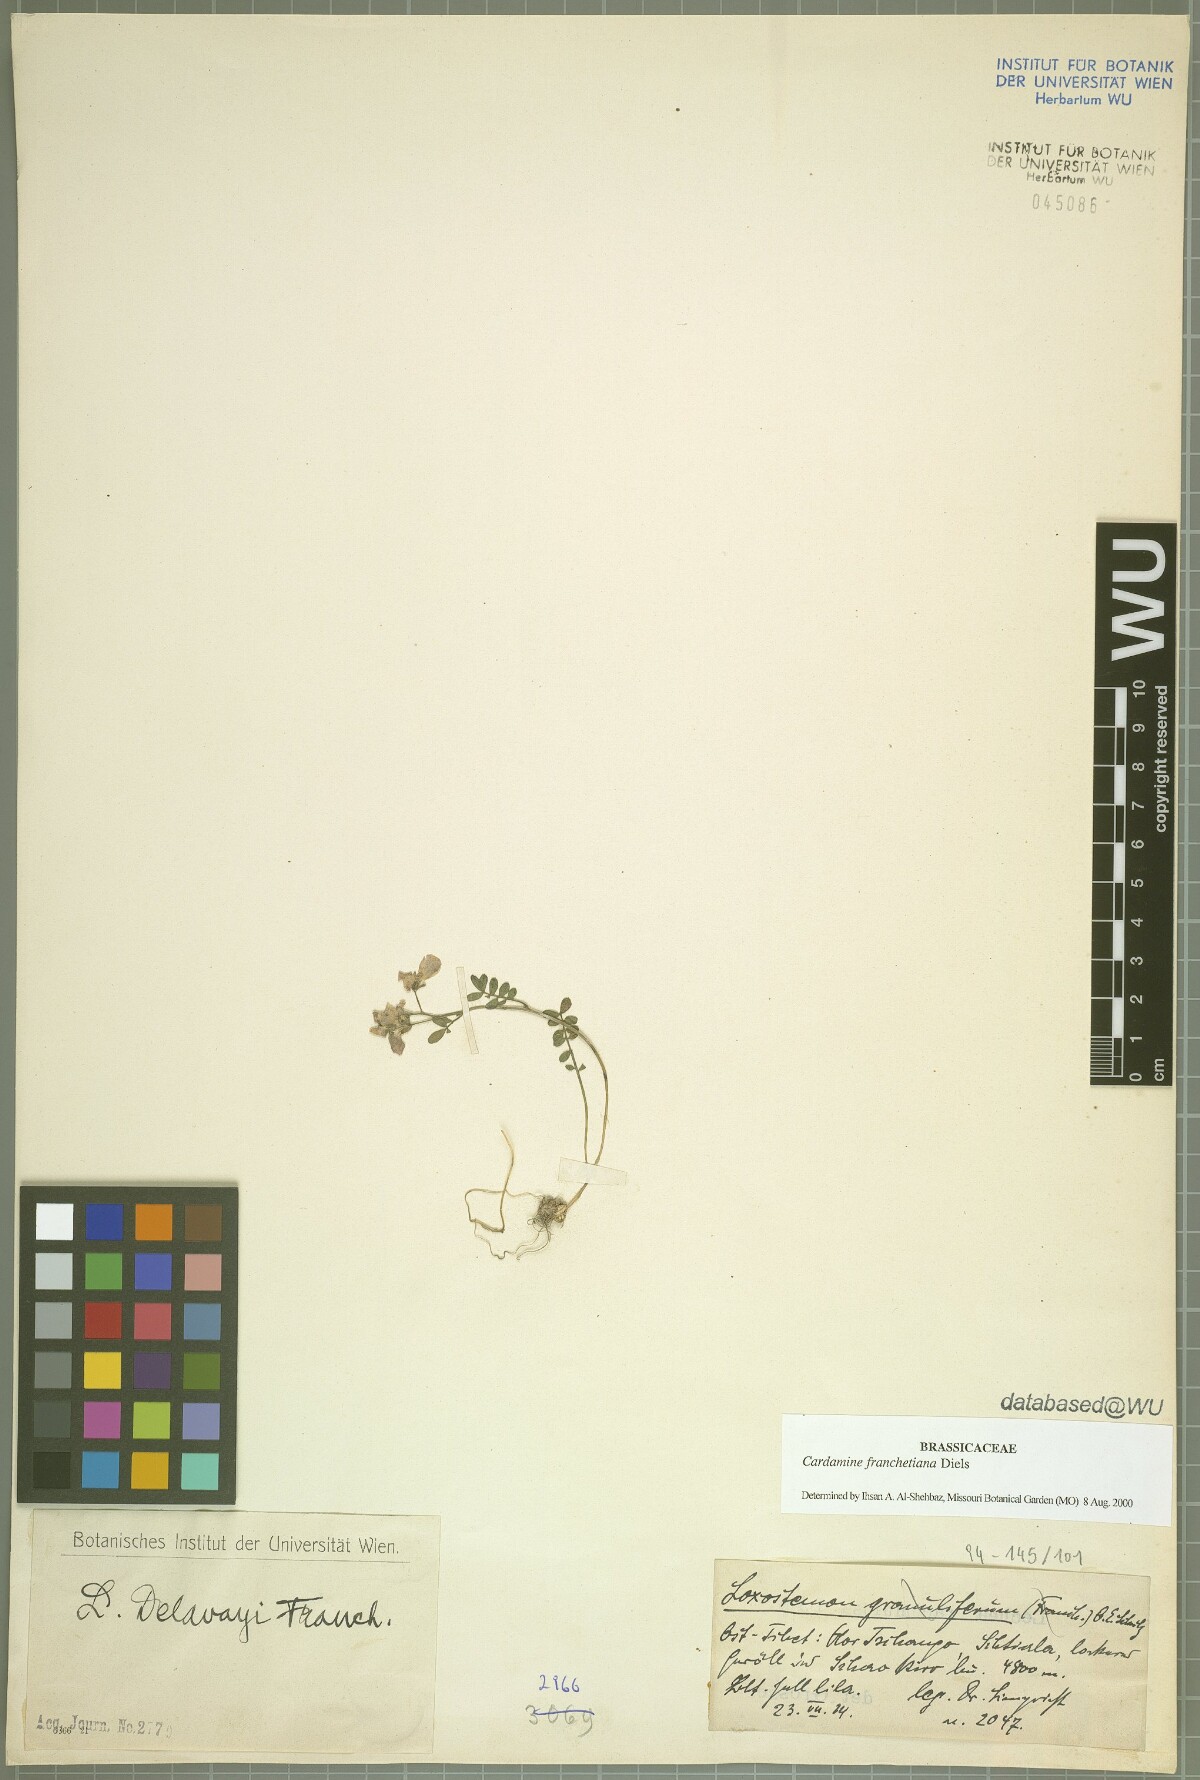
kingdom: Plantae
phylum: Tracheophyta
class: Magnoliopsida
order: Brassicales
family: Brassicaceae
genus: Cardamine
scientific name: Cardamine franchetiana
